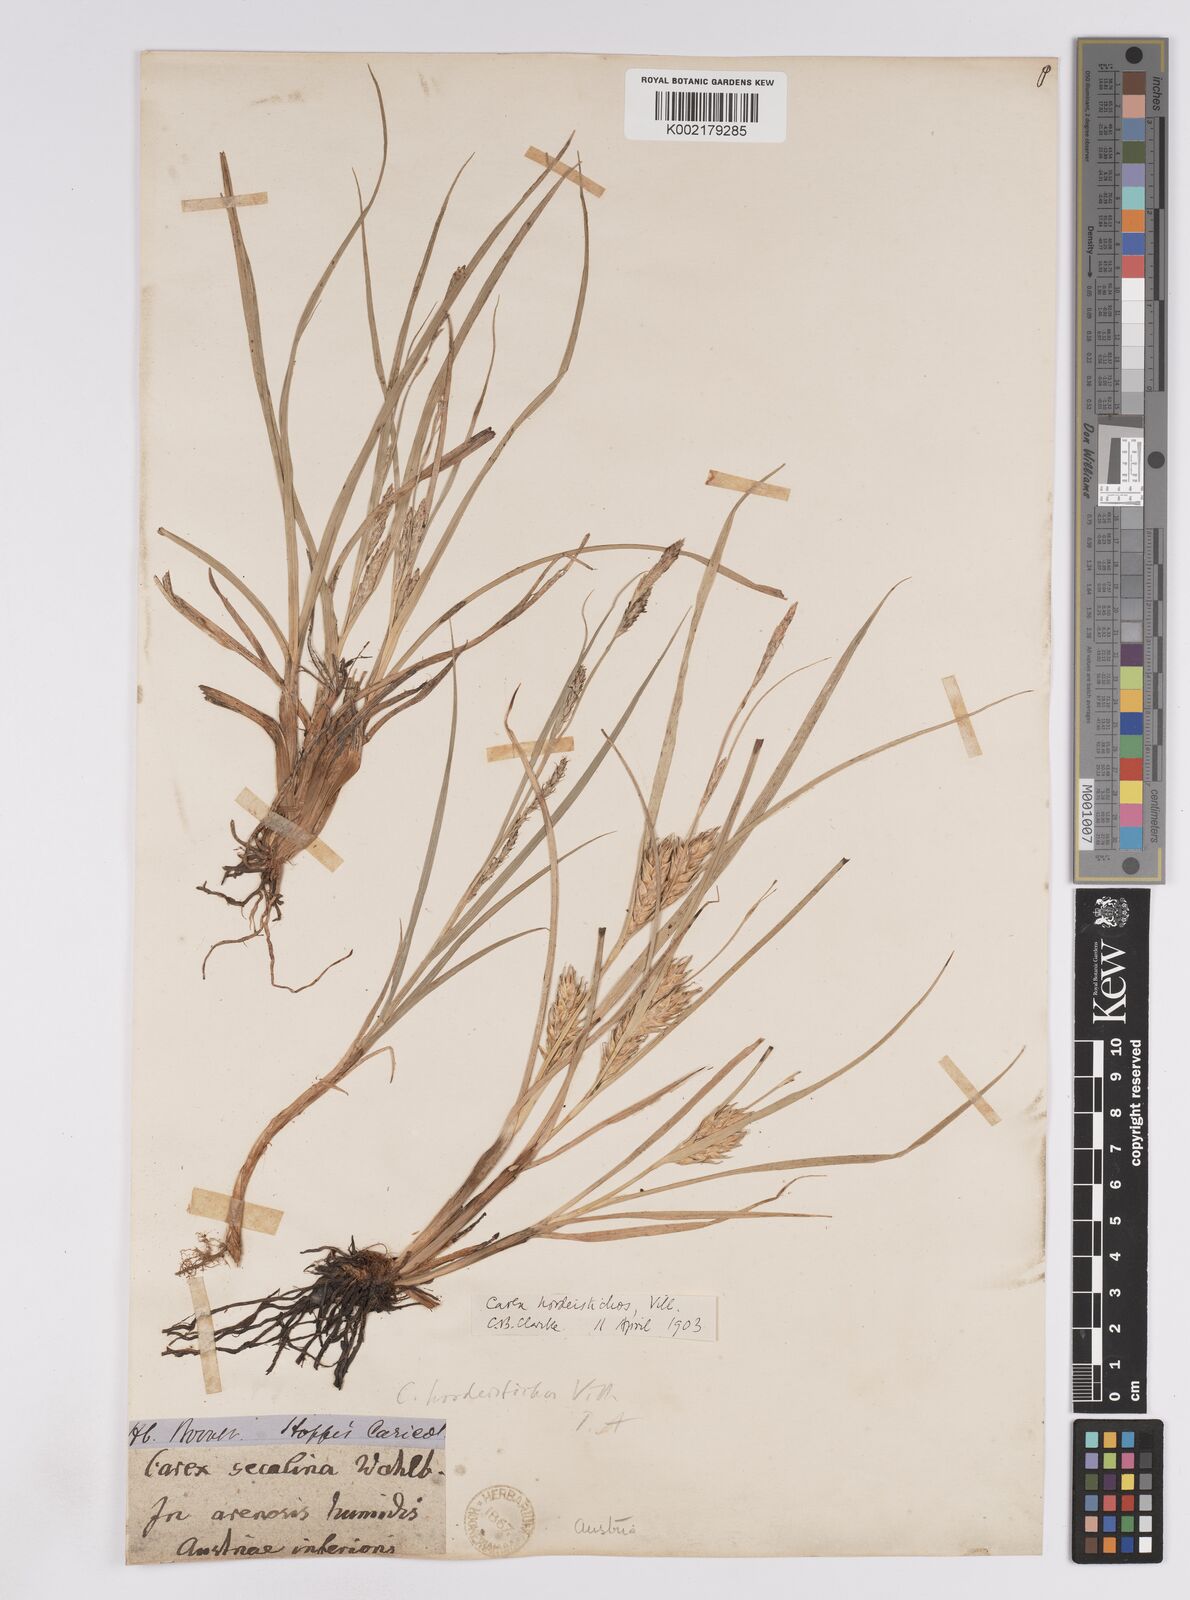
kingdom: Plantae
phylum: Tracheophyta
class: Liliopsida
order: Poales
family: Cyperaceae
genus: Carex
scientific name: Carex hordeistichos
